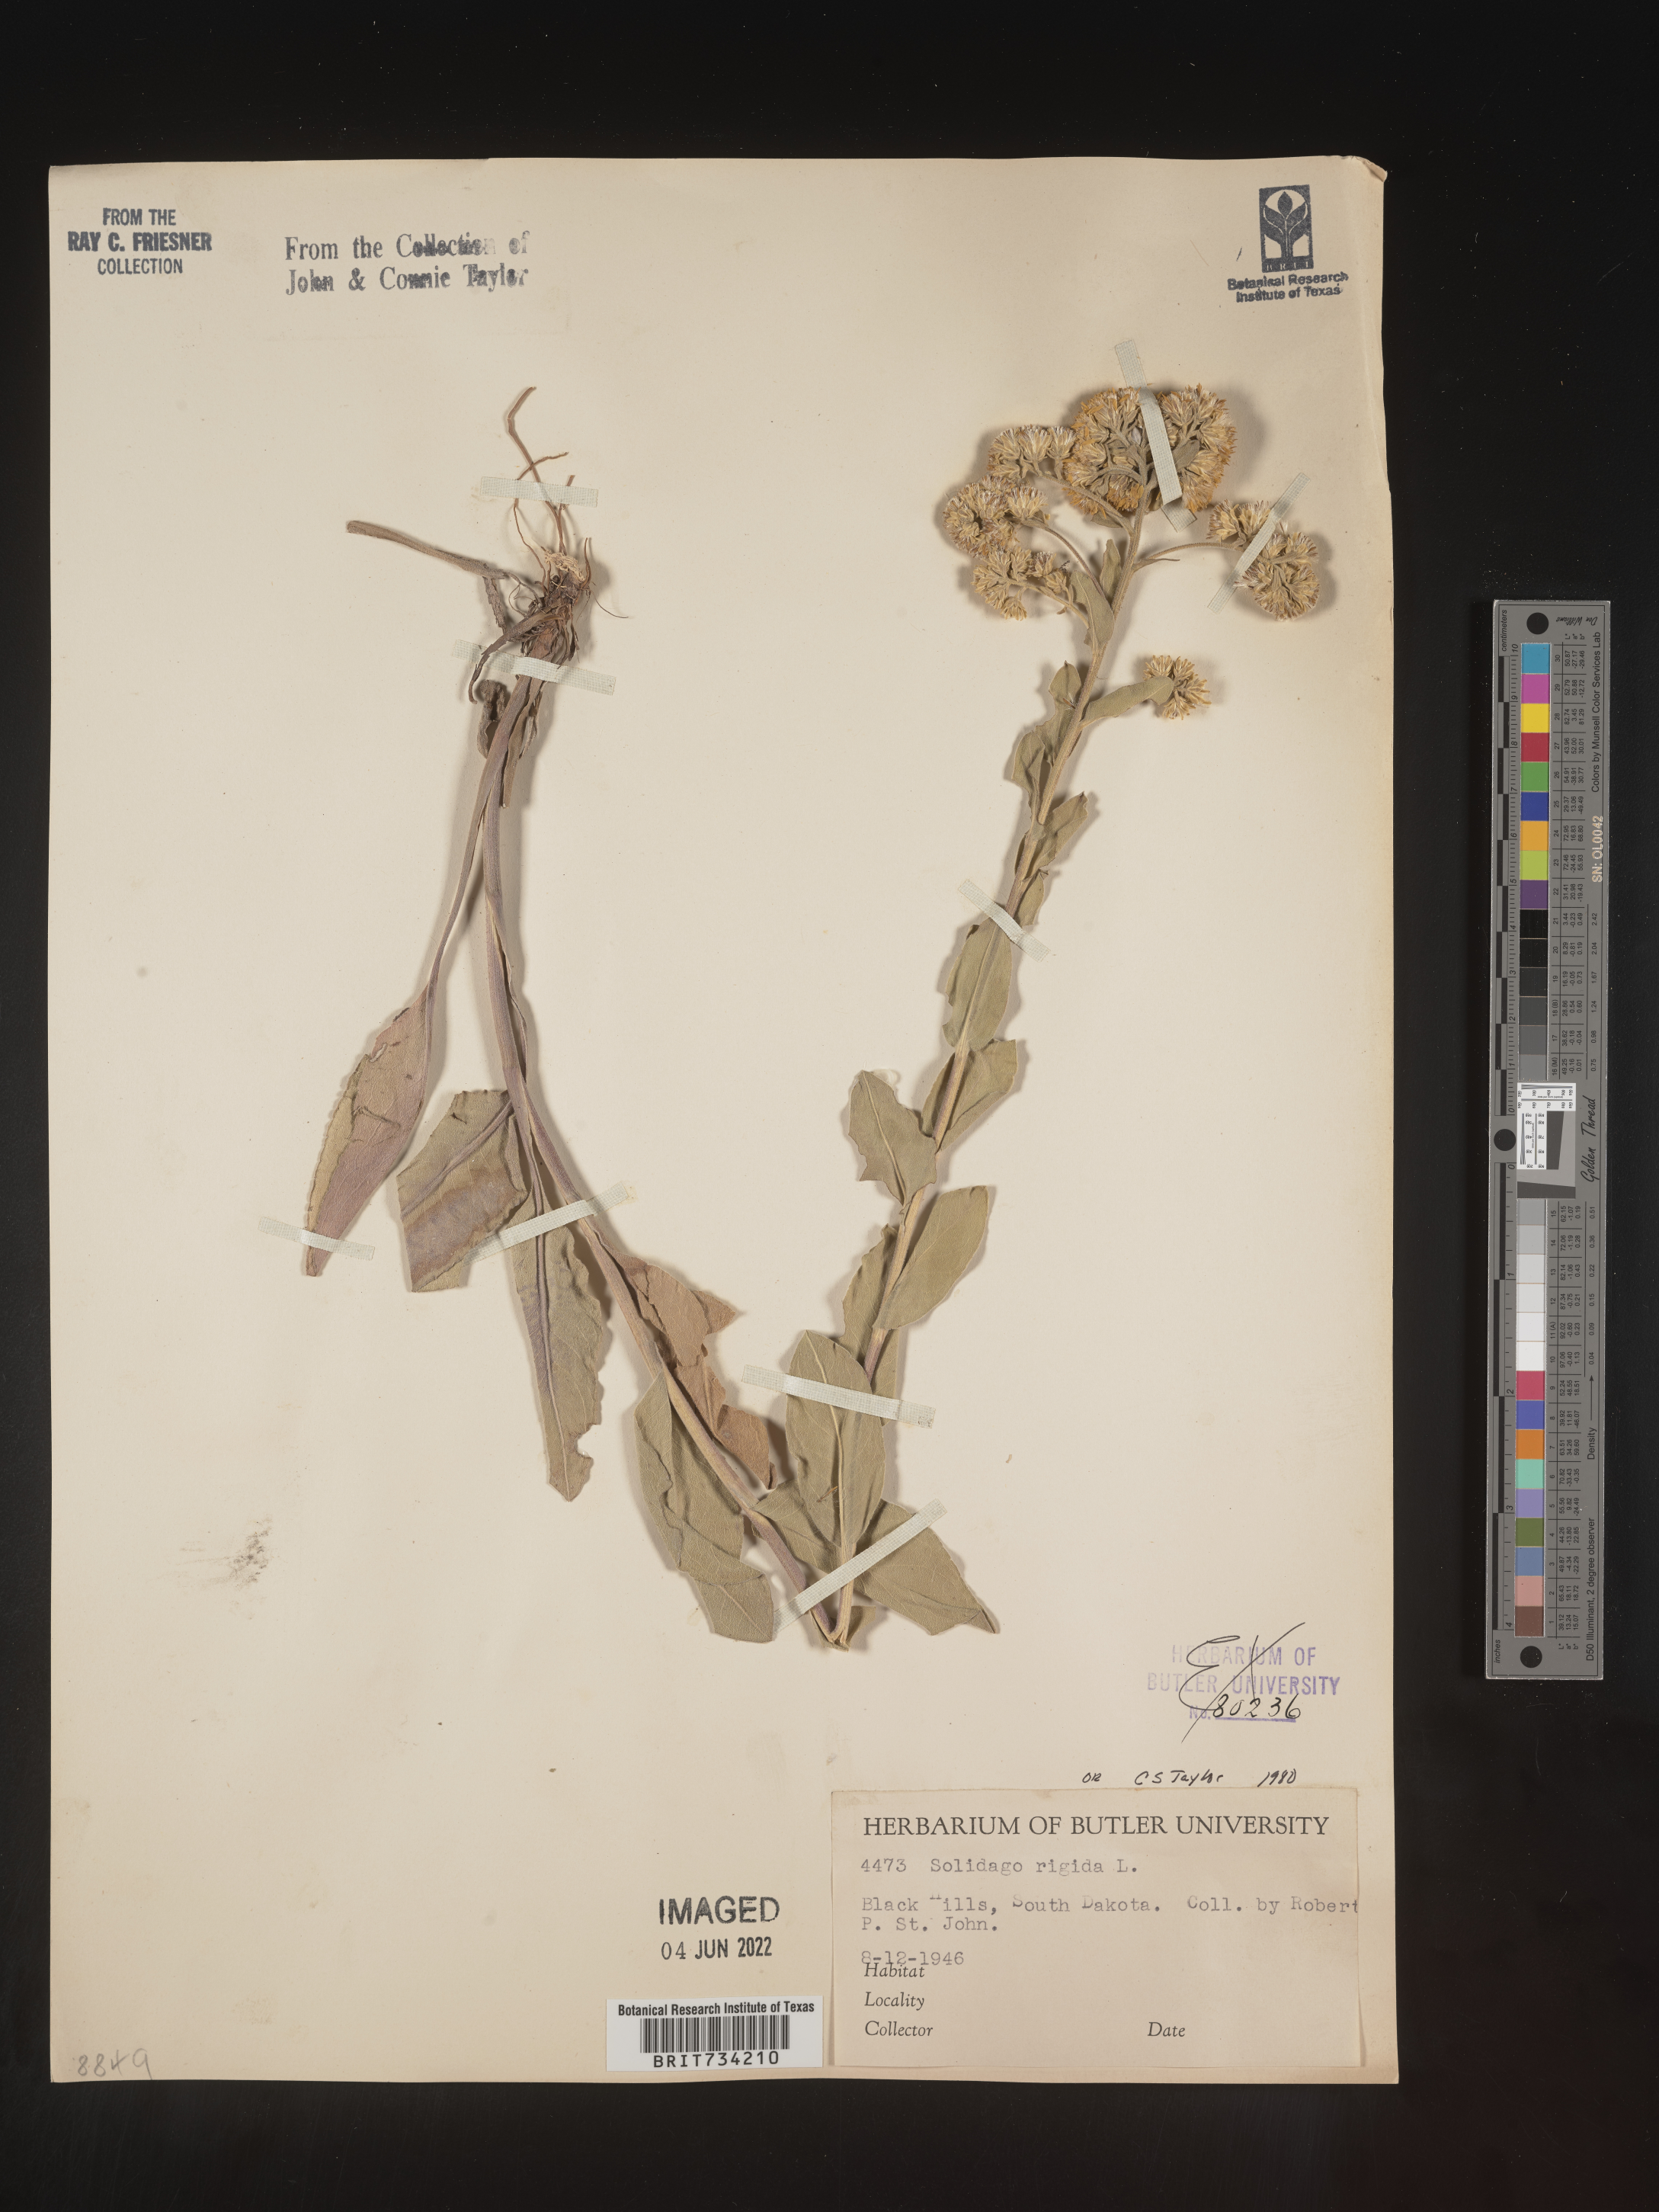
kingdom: Plantae
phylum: Tracheophyta
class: Magnoliopsida
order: Asterales
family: Asteraceae
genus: Solidago
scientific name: Solidago rigida
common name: Rigid goldenrod
